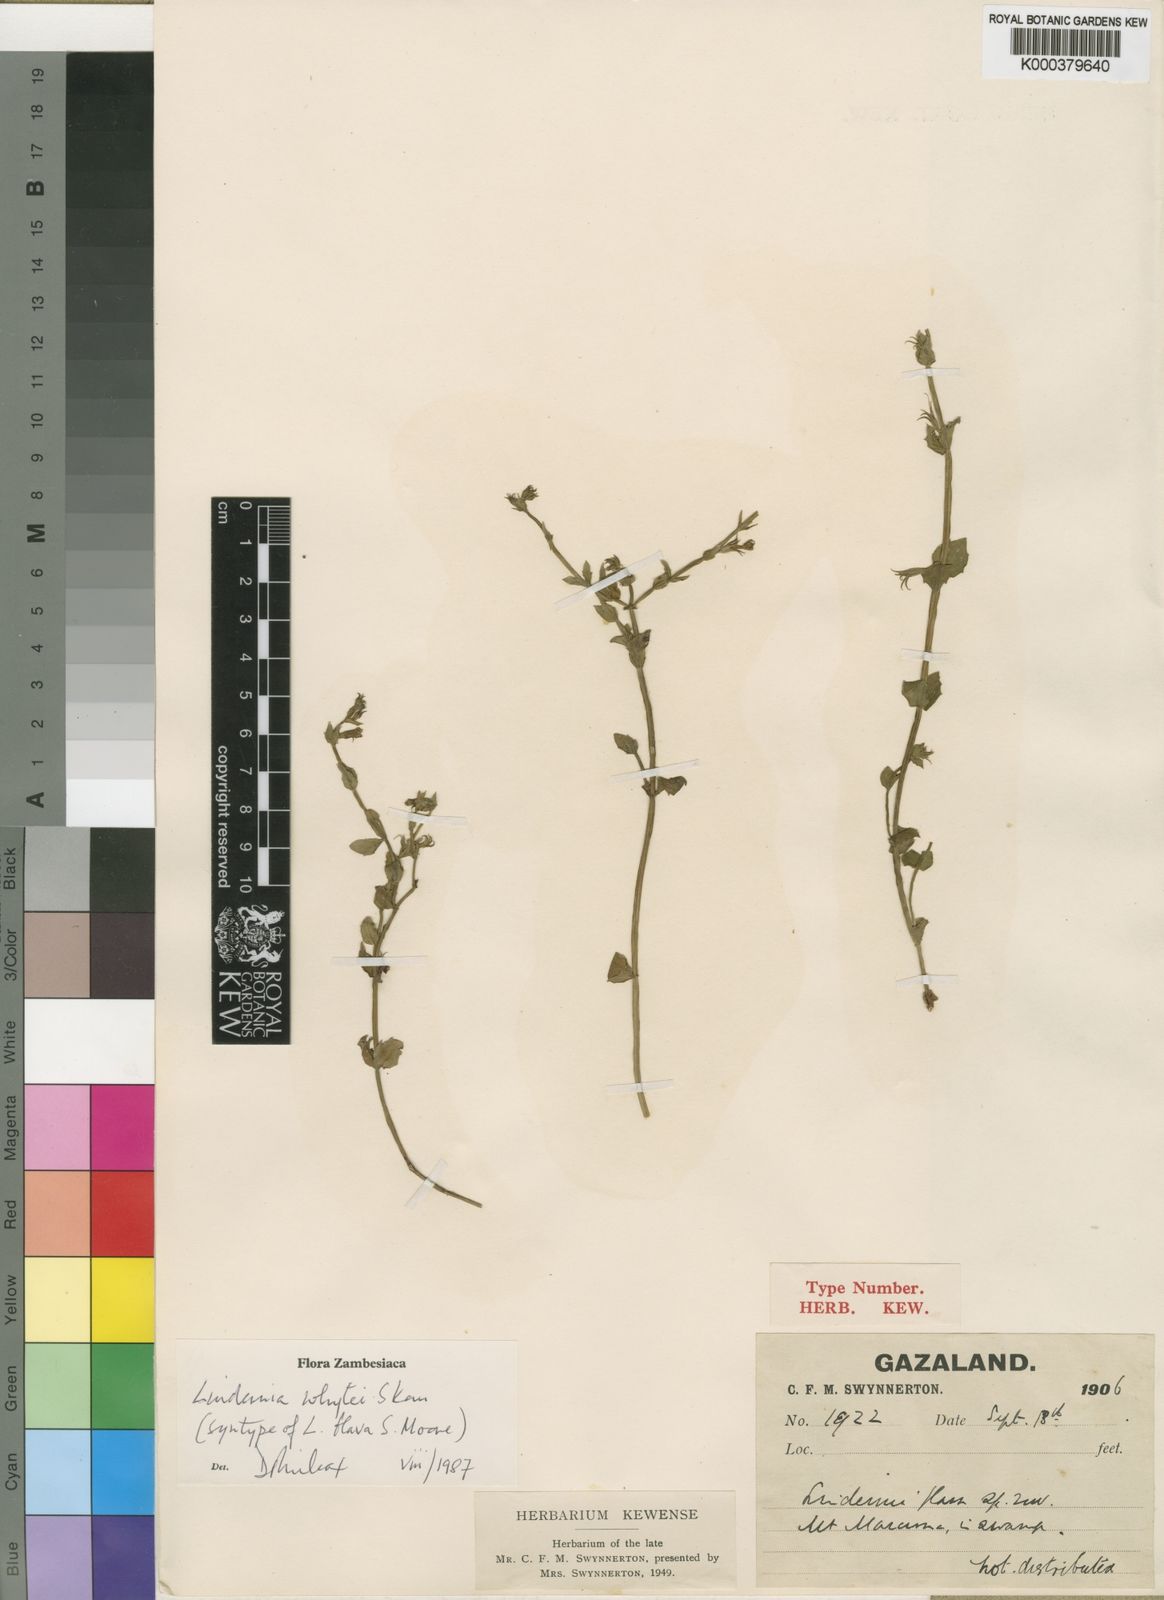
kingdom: Plantae
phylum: Tracheophyta
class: Magnoliopsida
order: Lamiales
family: Linderniaceae
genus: Crepidorhopalon
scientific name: Crepidorhopalon flavus
